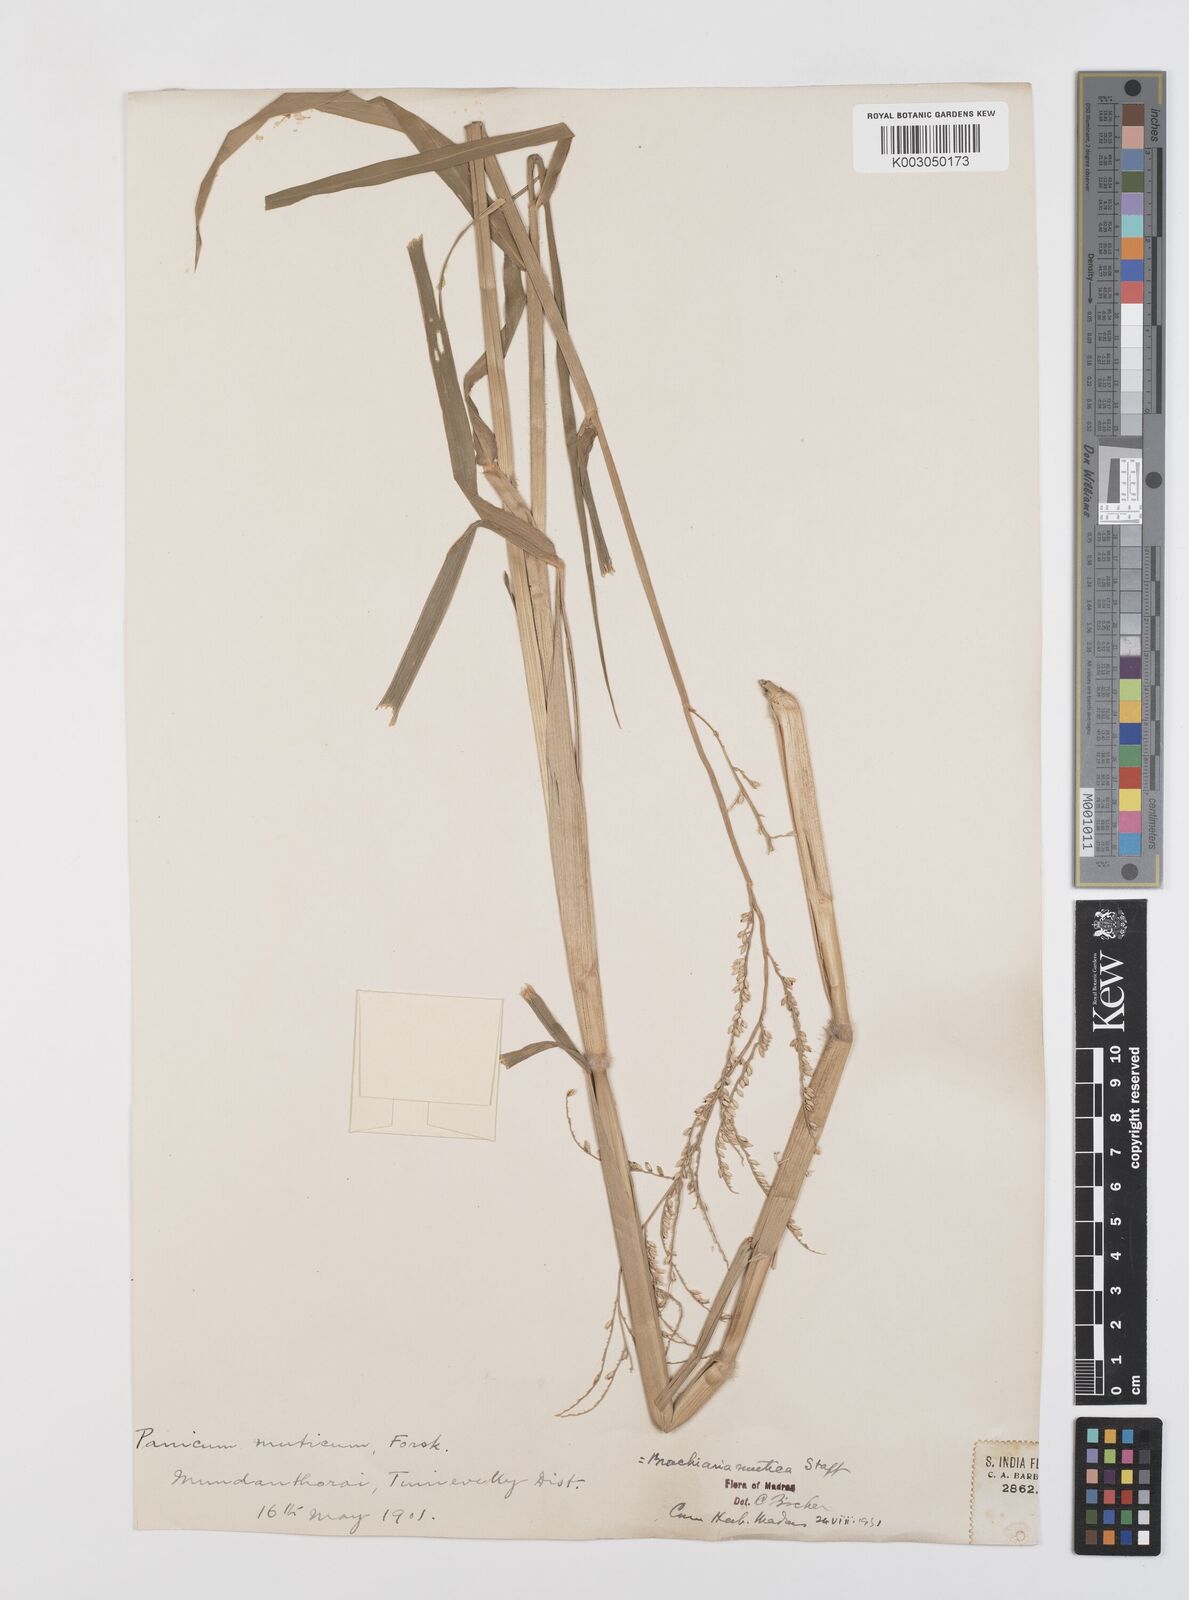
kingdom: Plantae
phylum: Tracheophyta
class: Liliopsida
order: Poales
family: Poaceae
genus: Urochloa
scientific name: Urochloa mutica
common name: Para grass
